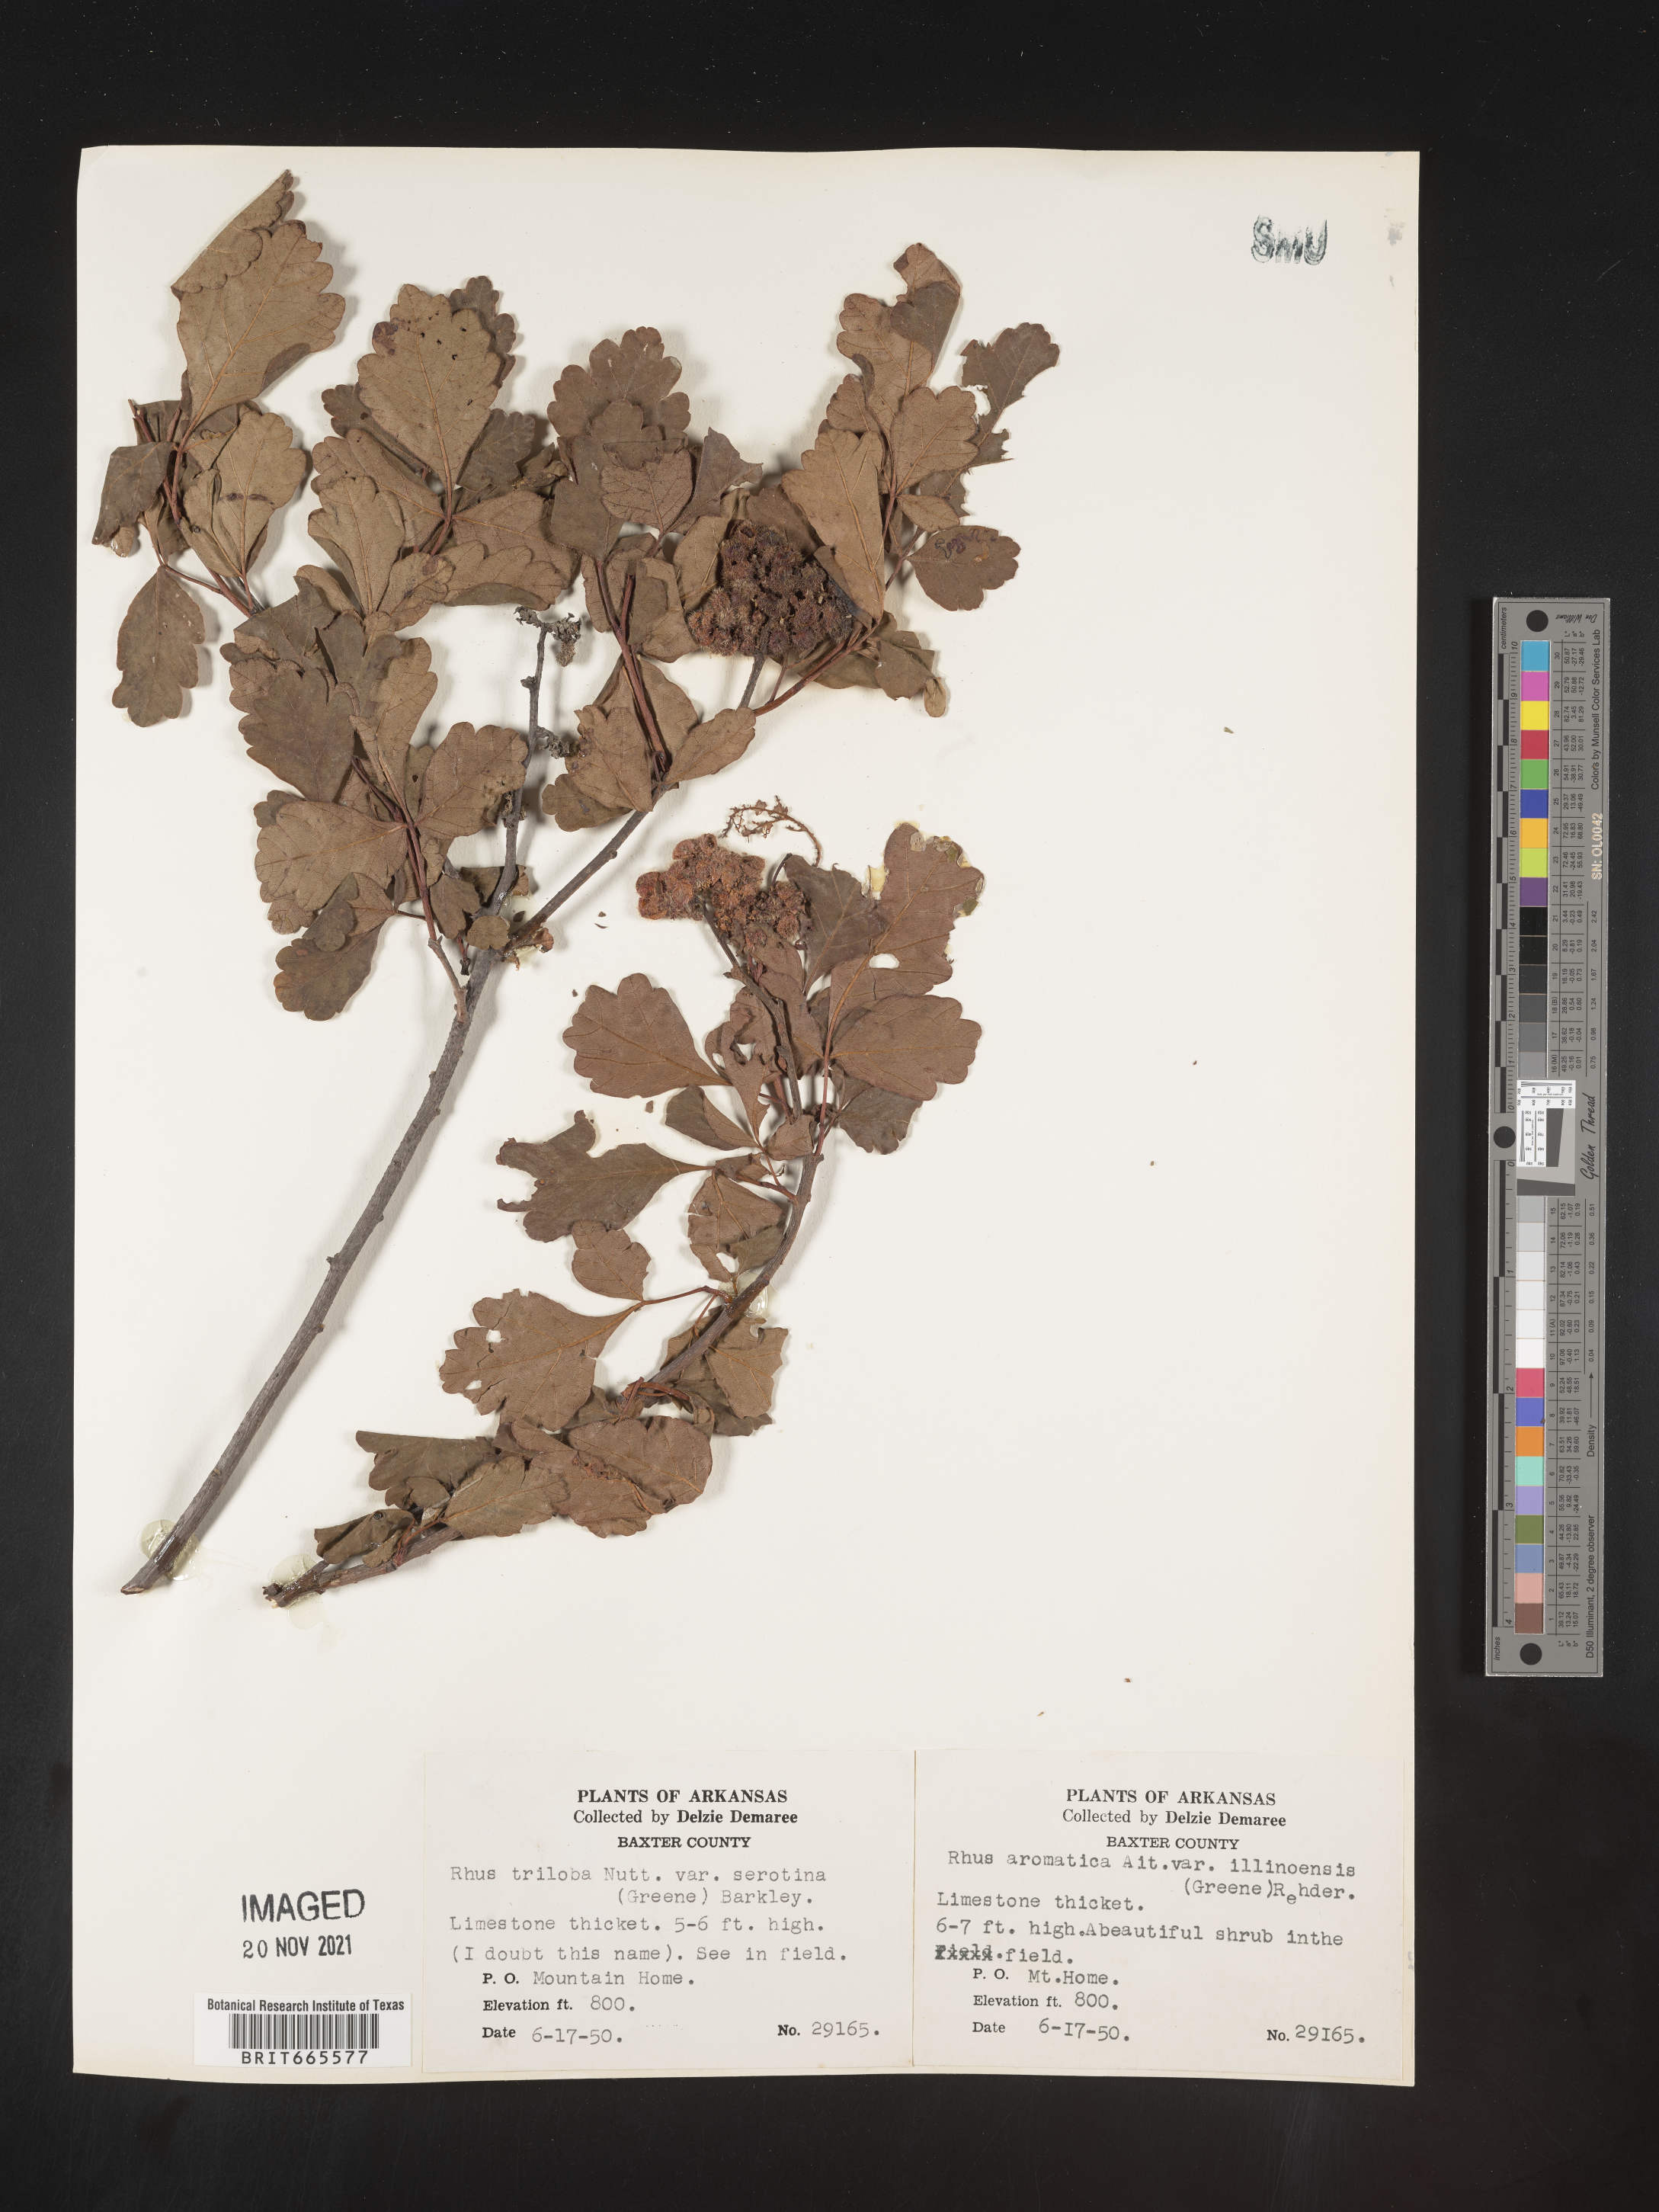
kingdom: Plantae
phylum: Tracheophyta
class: Magnoliopsida
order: Sapindales
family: Anacardiaceae
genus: Rhus
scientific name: Rhus aromatica
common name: Aromatic sumac
